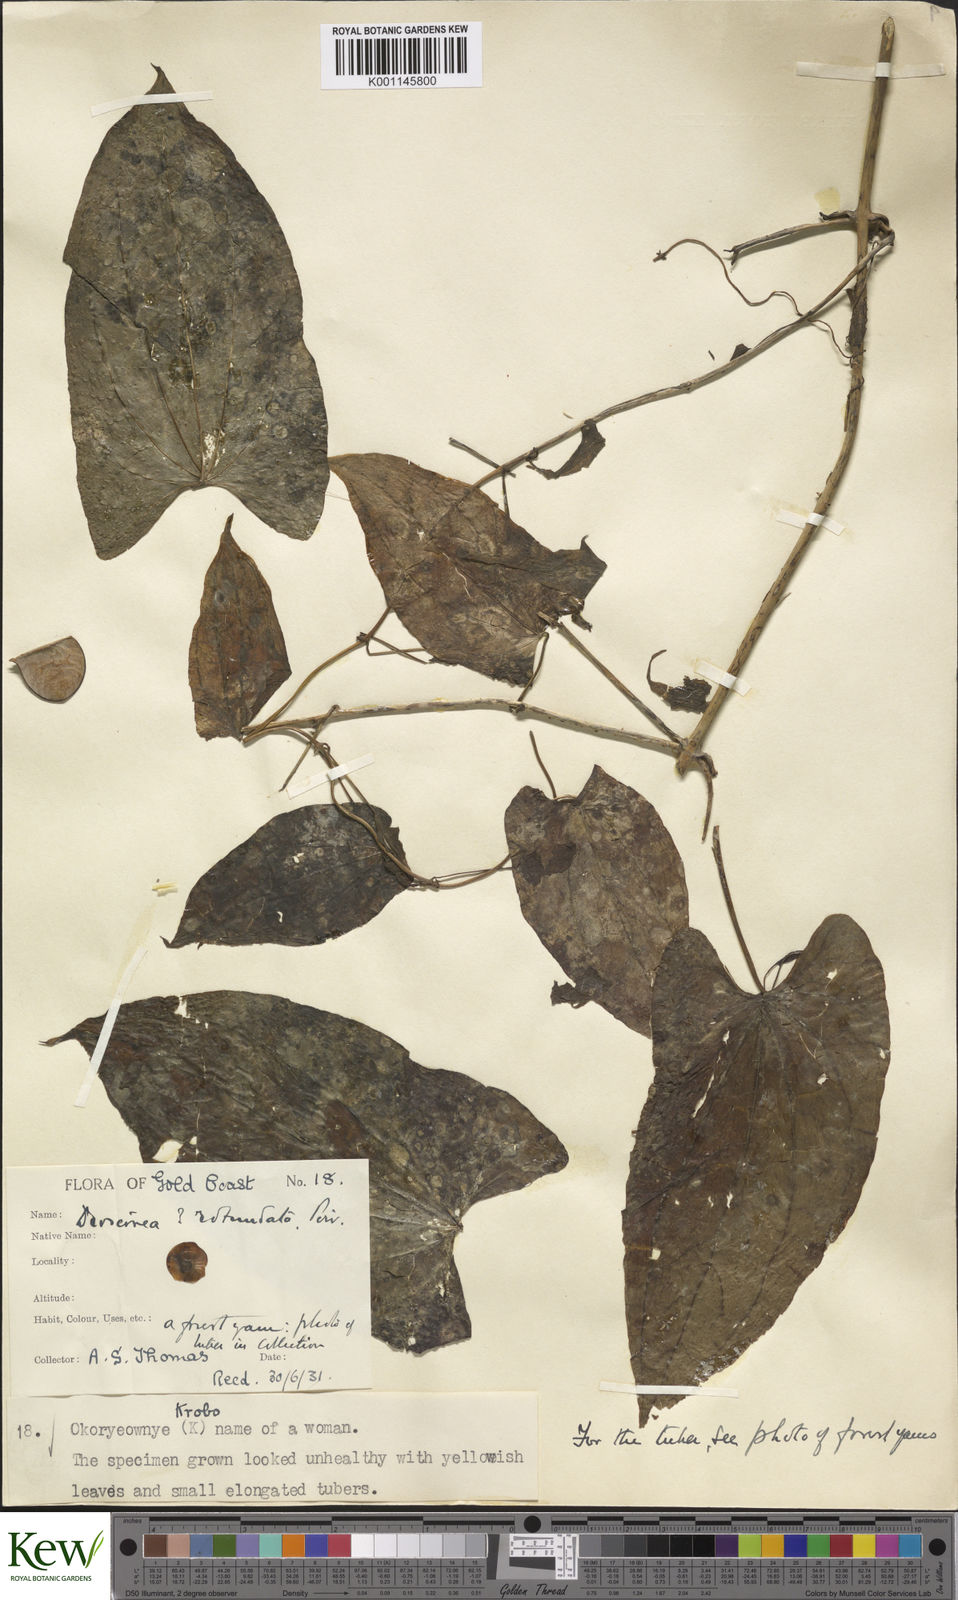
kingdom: Plantae
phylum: Tracheophyta
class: Liliopsida
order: Dioscoreales
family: Dioscoreaceae
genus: Dioscorea
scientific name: Dioscorea cayenensis
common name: Attoto yam
